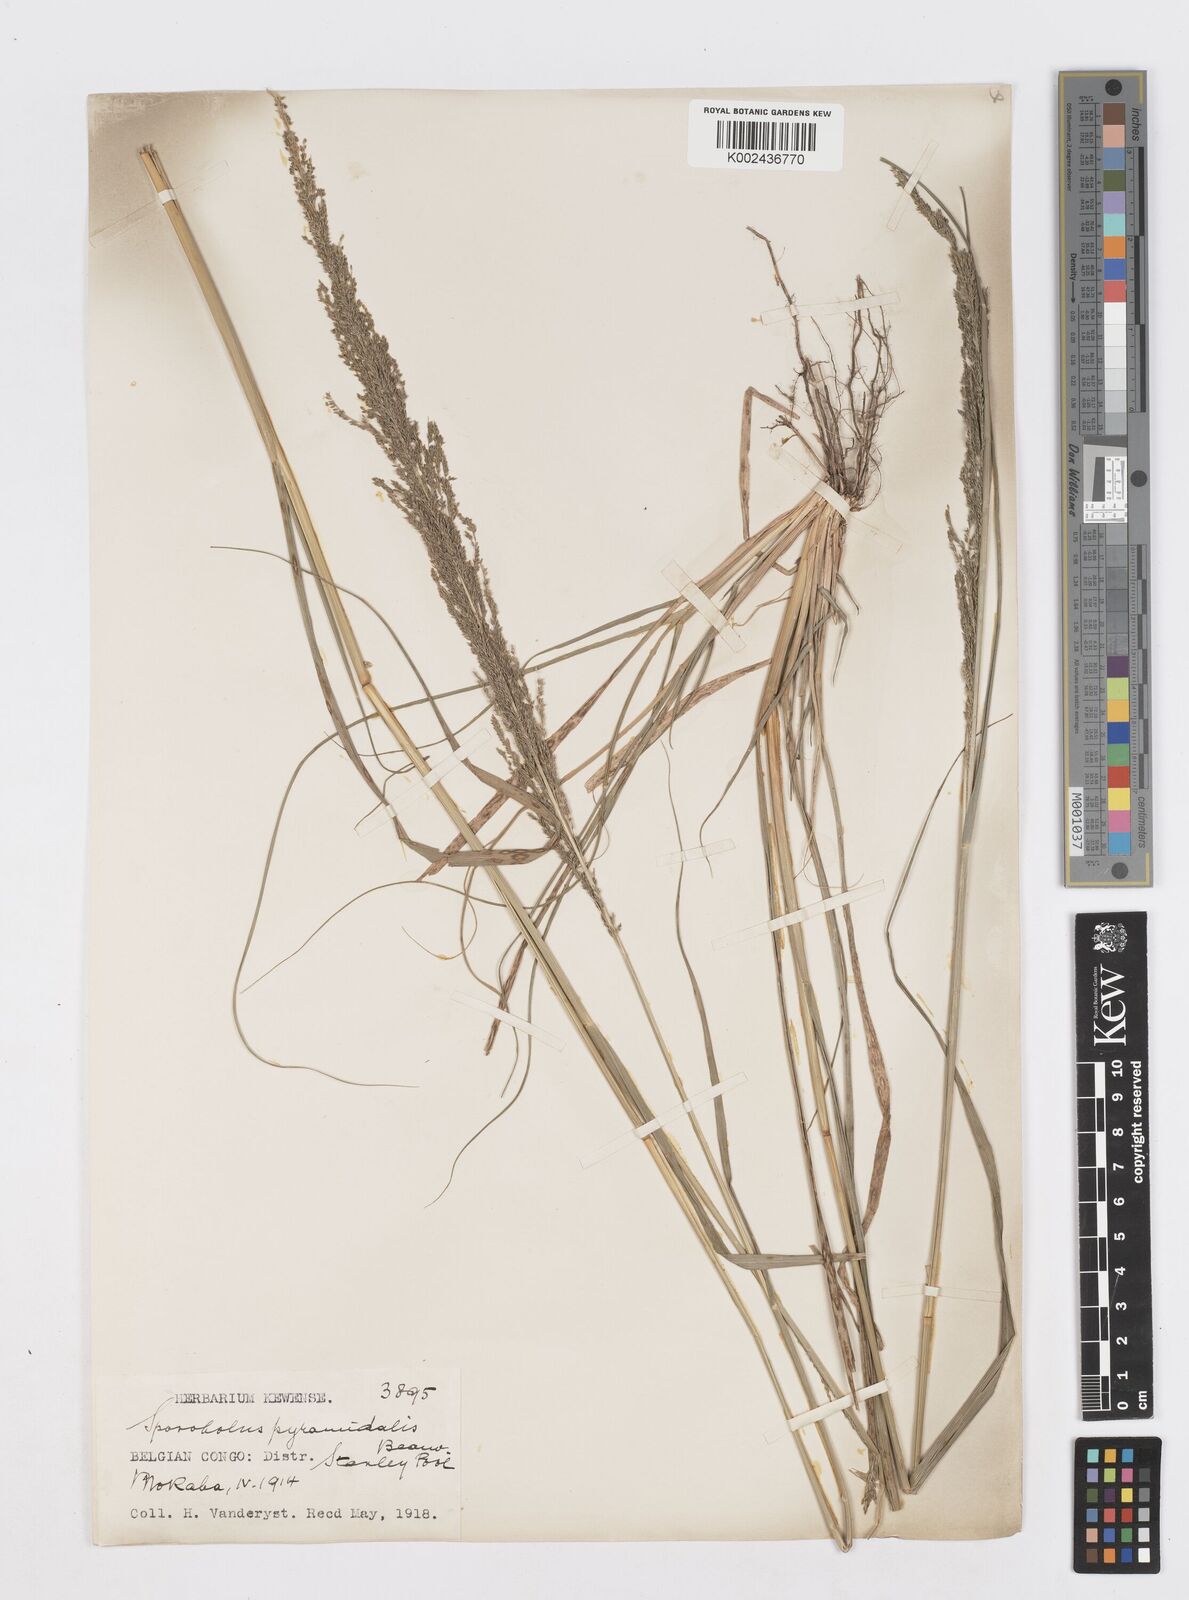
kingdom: Plantae
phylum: Tracheophyta
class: Liliopsida
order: Poales
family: Poaceae
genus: Sporobolus
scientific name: Sporobolus pyramidalis
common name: West indian dropseed
